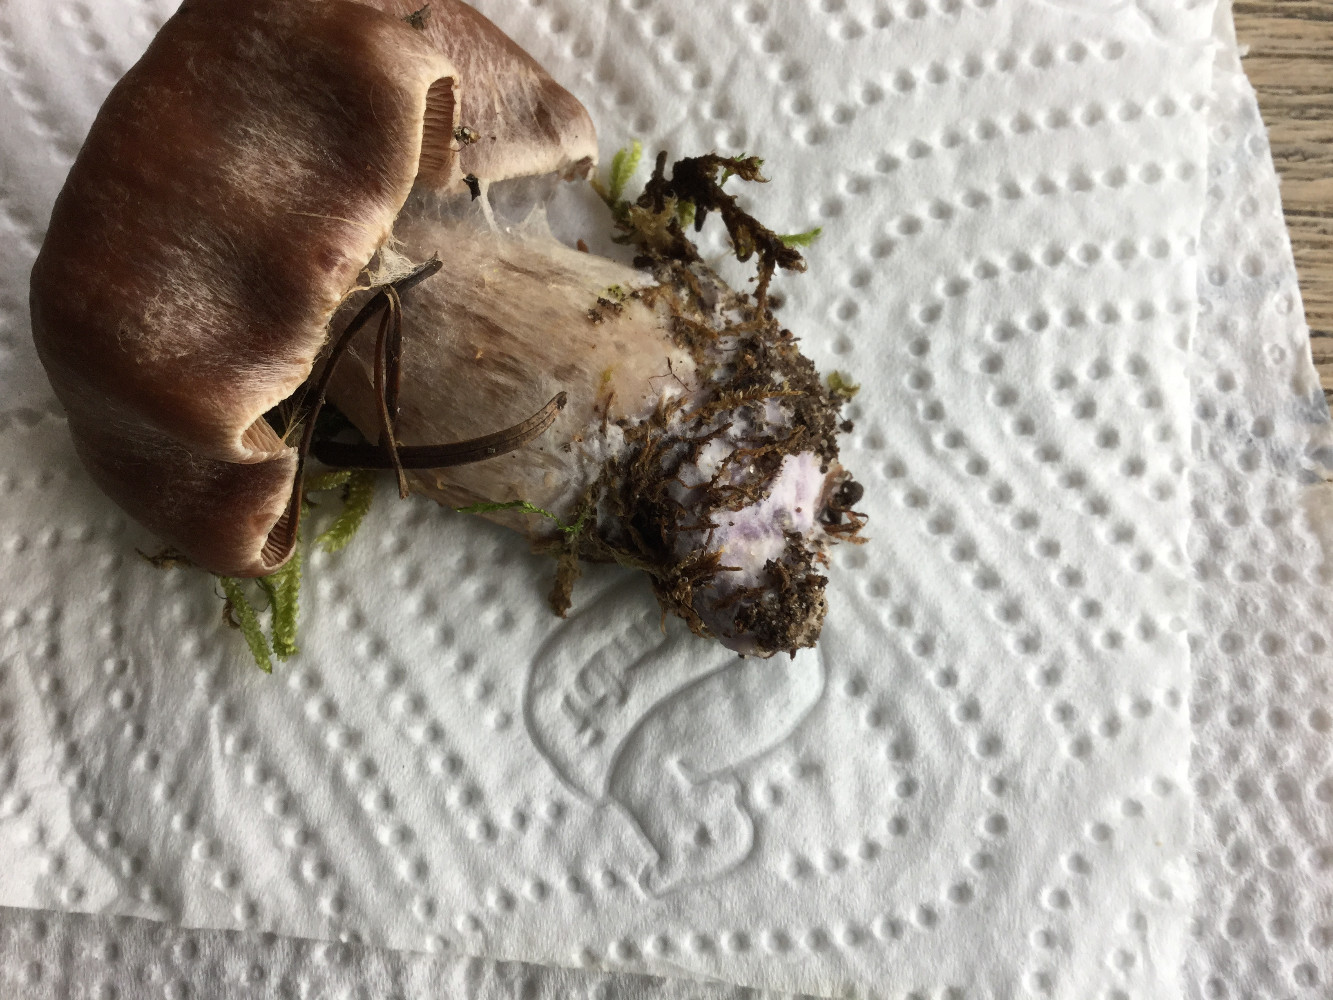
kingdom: Fungi
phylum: Basidiomycota
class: Agaricomycetes
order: Agaricales
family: Cortinariaceae
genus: Cortinarius
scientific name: Cortinarius
